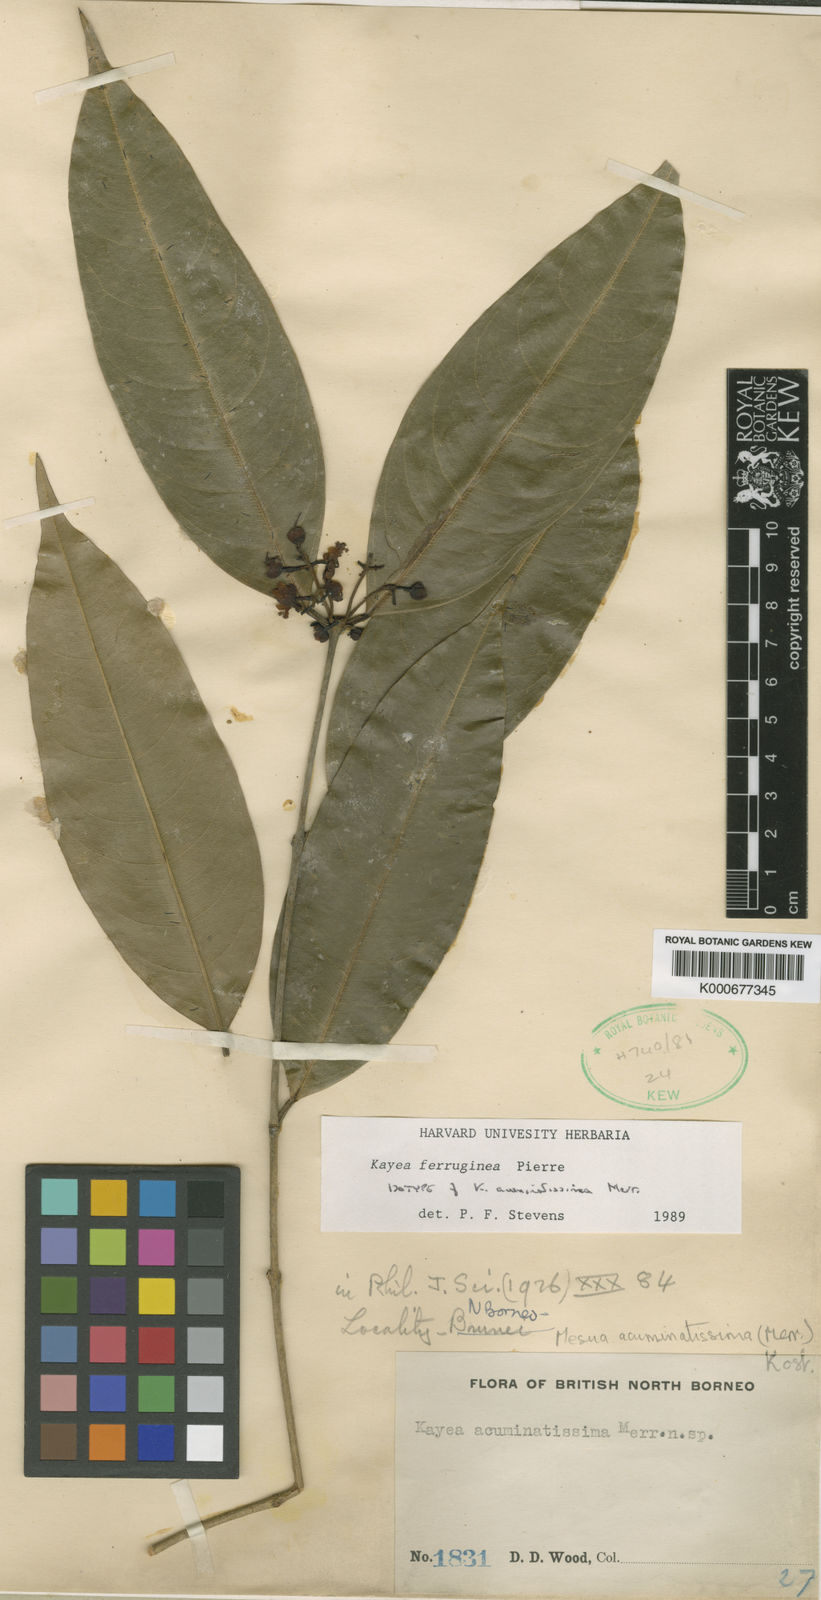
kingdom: Plantae
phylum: Tracheophyta
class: Magnoliopsida
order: Malpighiales
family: Calophyllaceae
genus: Kayea
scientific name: Kayea manii
